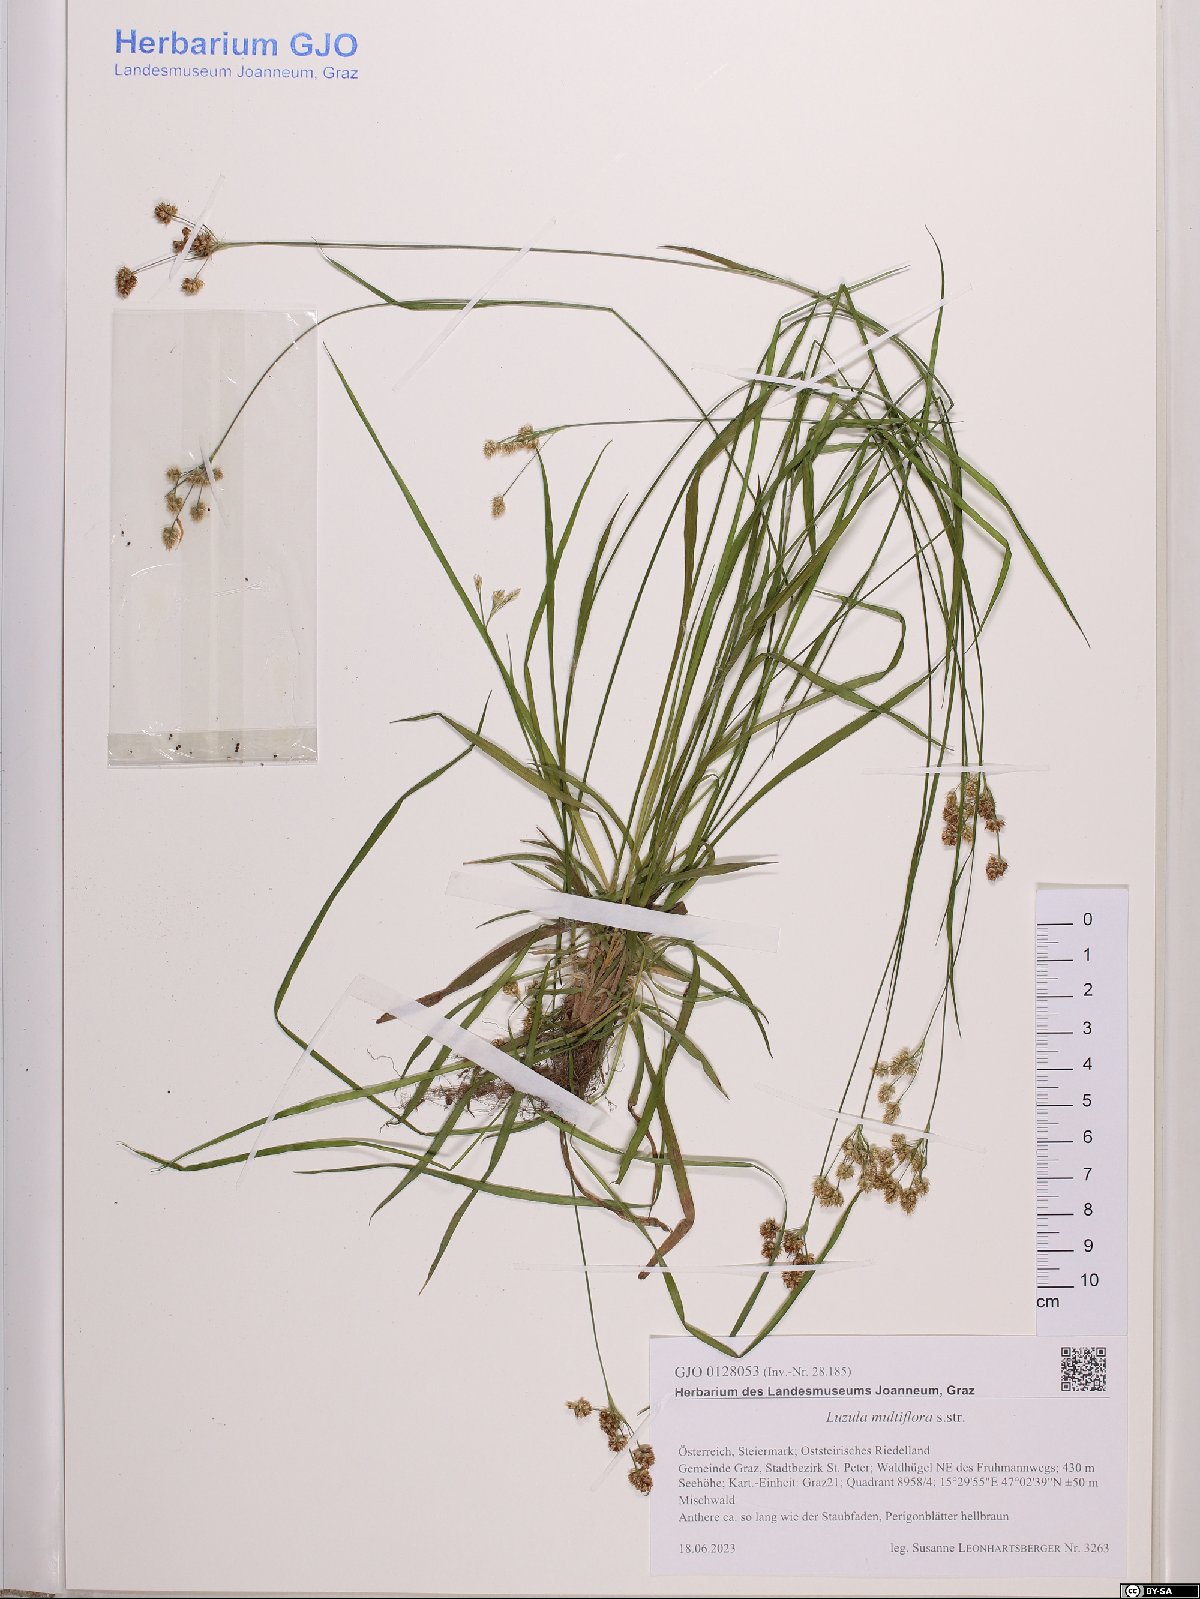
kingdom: Plantae
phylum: Tracheophyta
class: Liliopsida
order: Poales
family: Juncaceae
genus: Luzula
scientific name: Luzula multiflora
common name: Heath wood-rush
